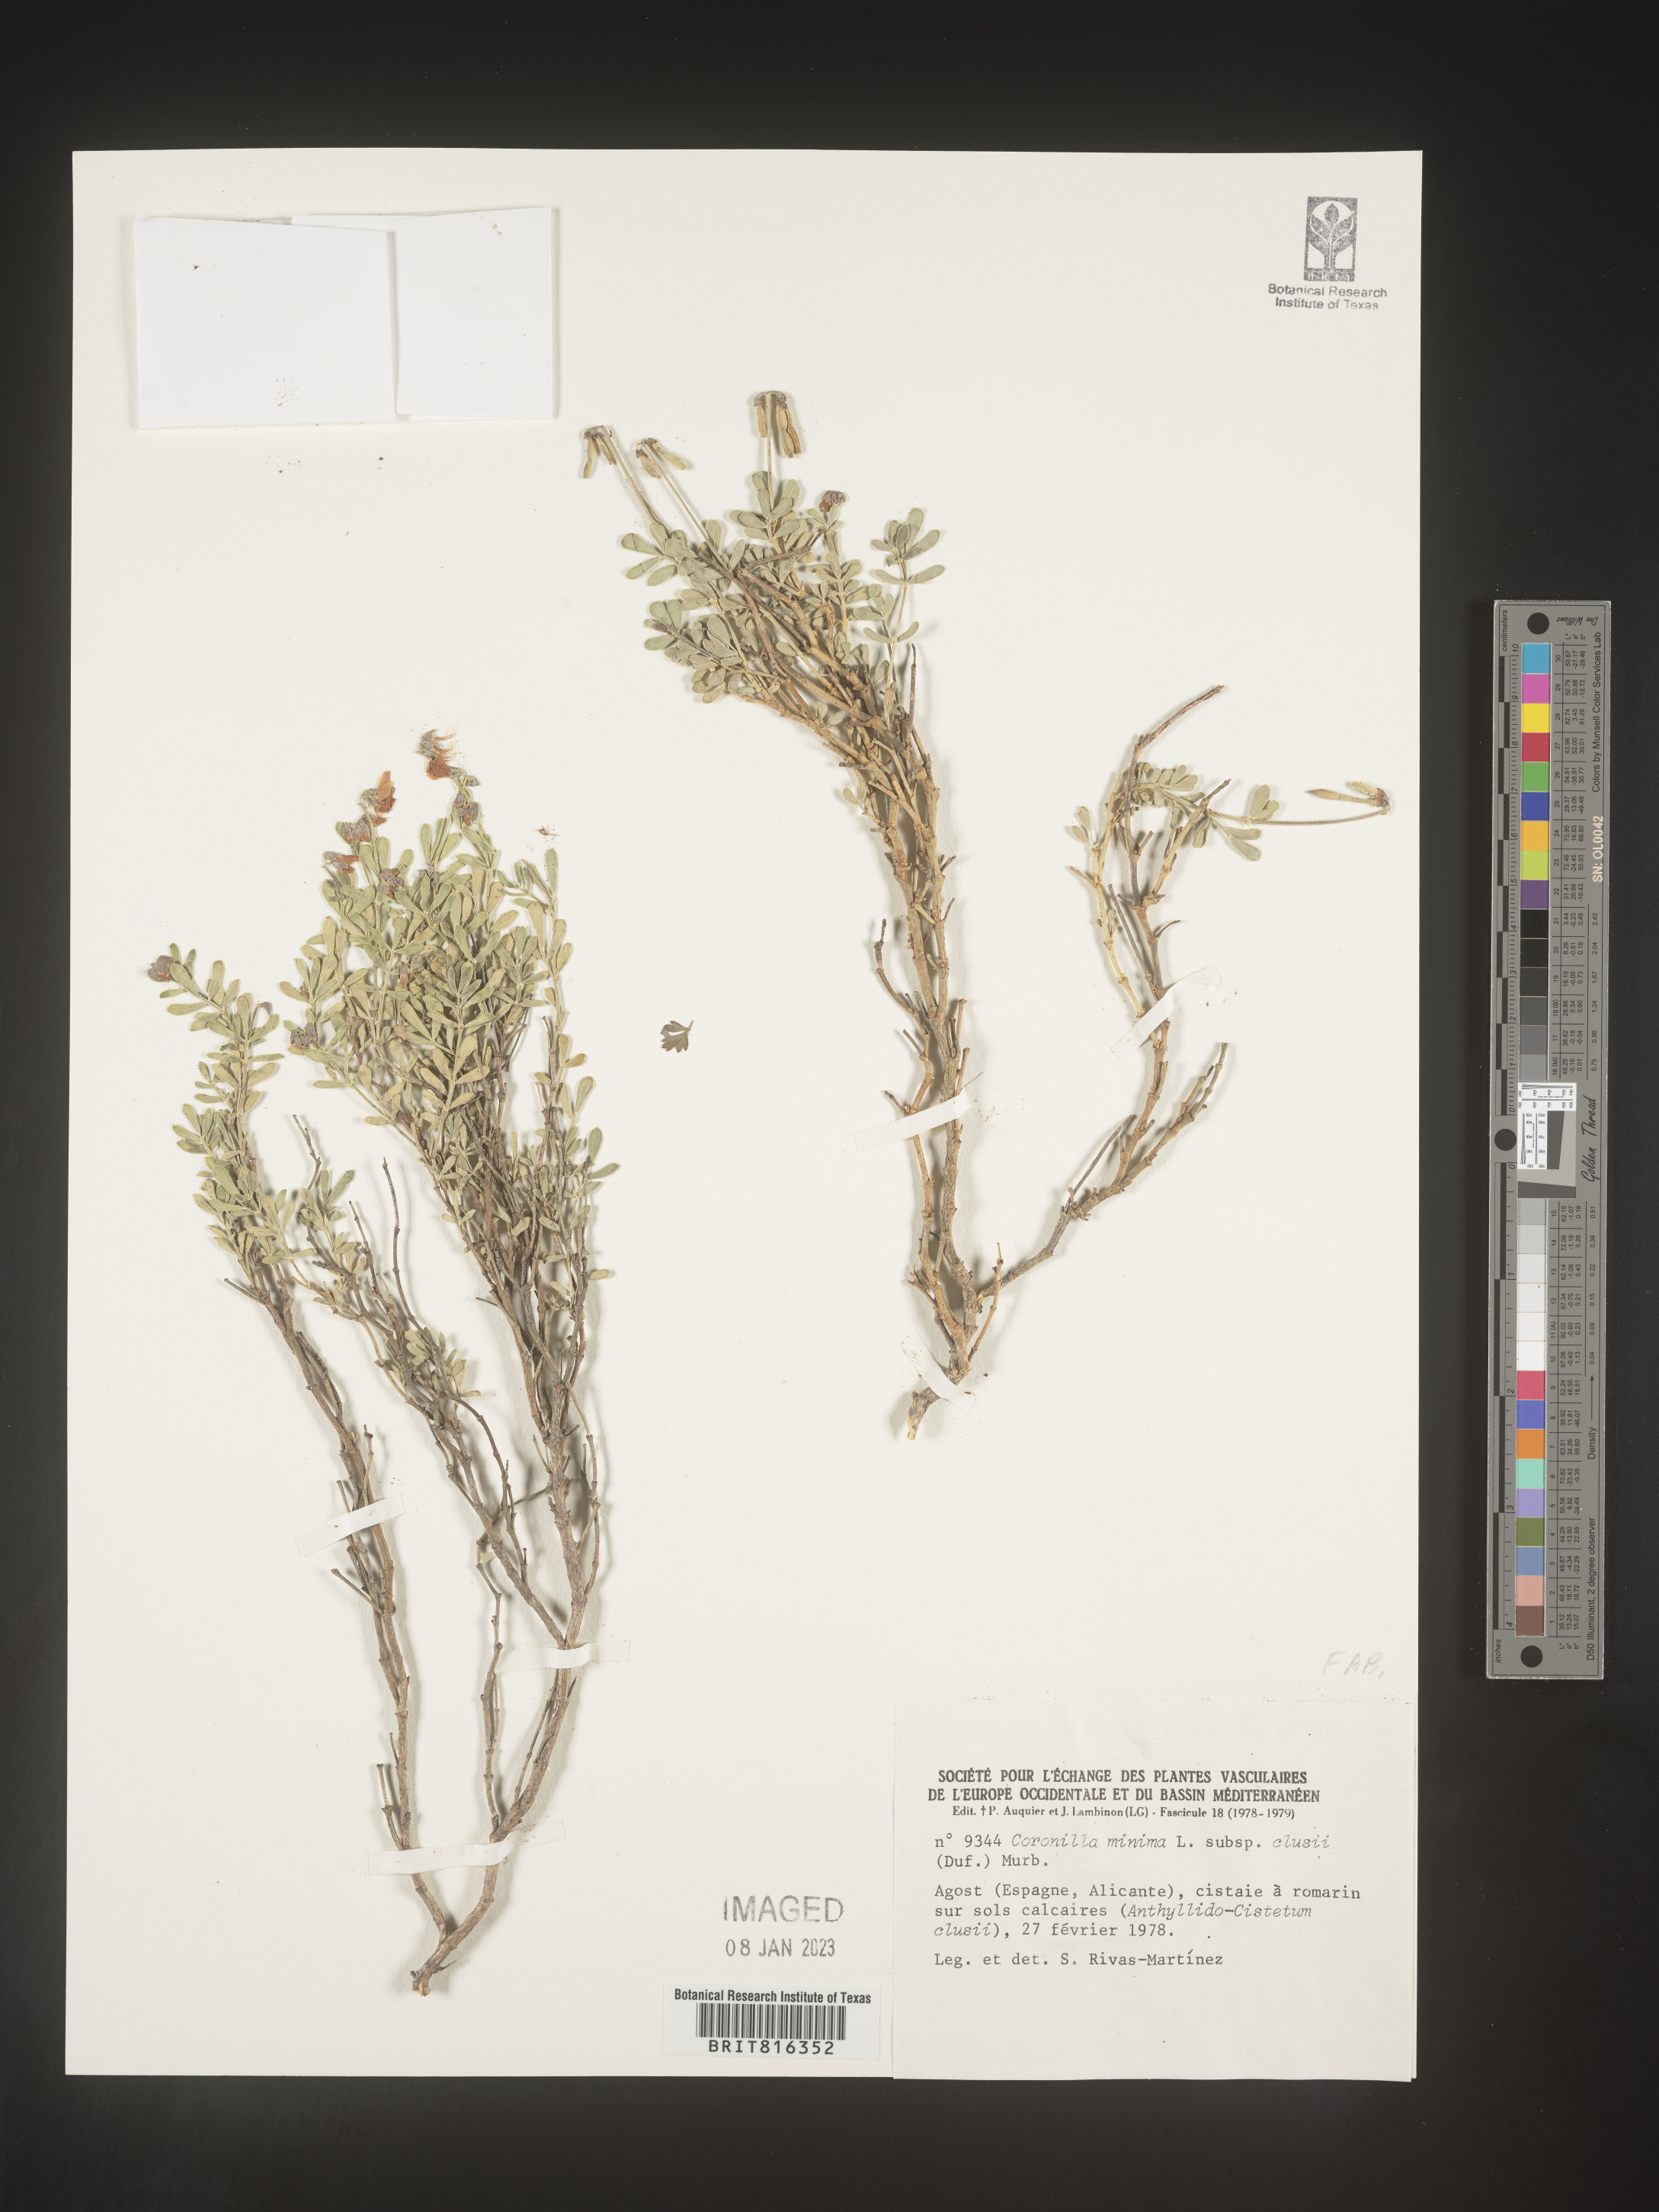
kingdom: Plantae
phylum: Tracheophyta
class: Magnoliopsida
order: Fabales
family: Fabaceae
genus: Coronilla
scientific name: Coronilla
